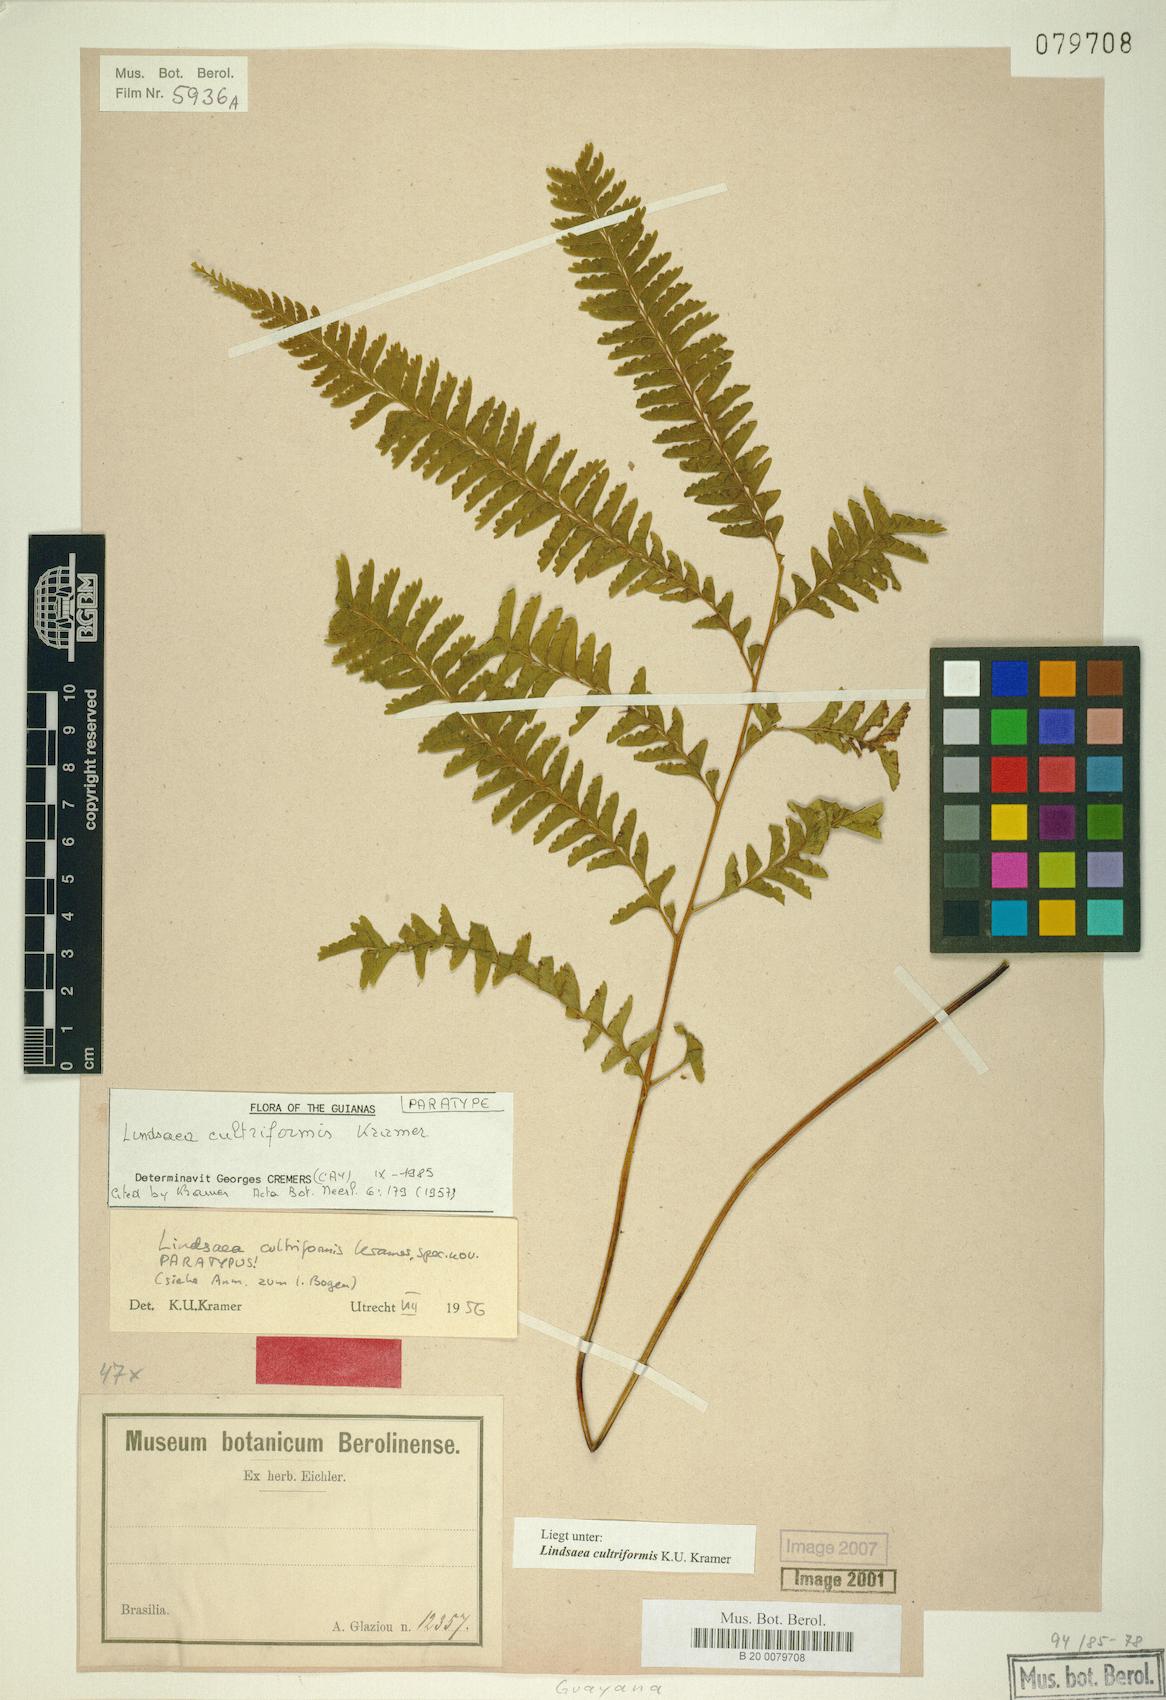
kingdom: Plantae
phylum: Tracheophyta
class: Polypodiopsida
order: Polypodiales
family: Lindsaeaceae
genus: Lindsaea
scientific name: Lindsaea cultriformis
